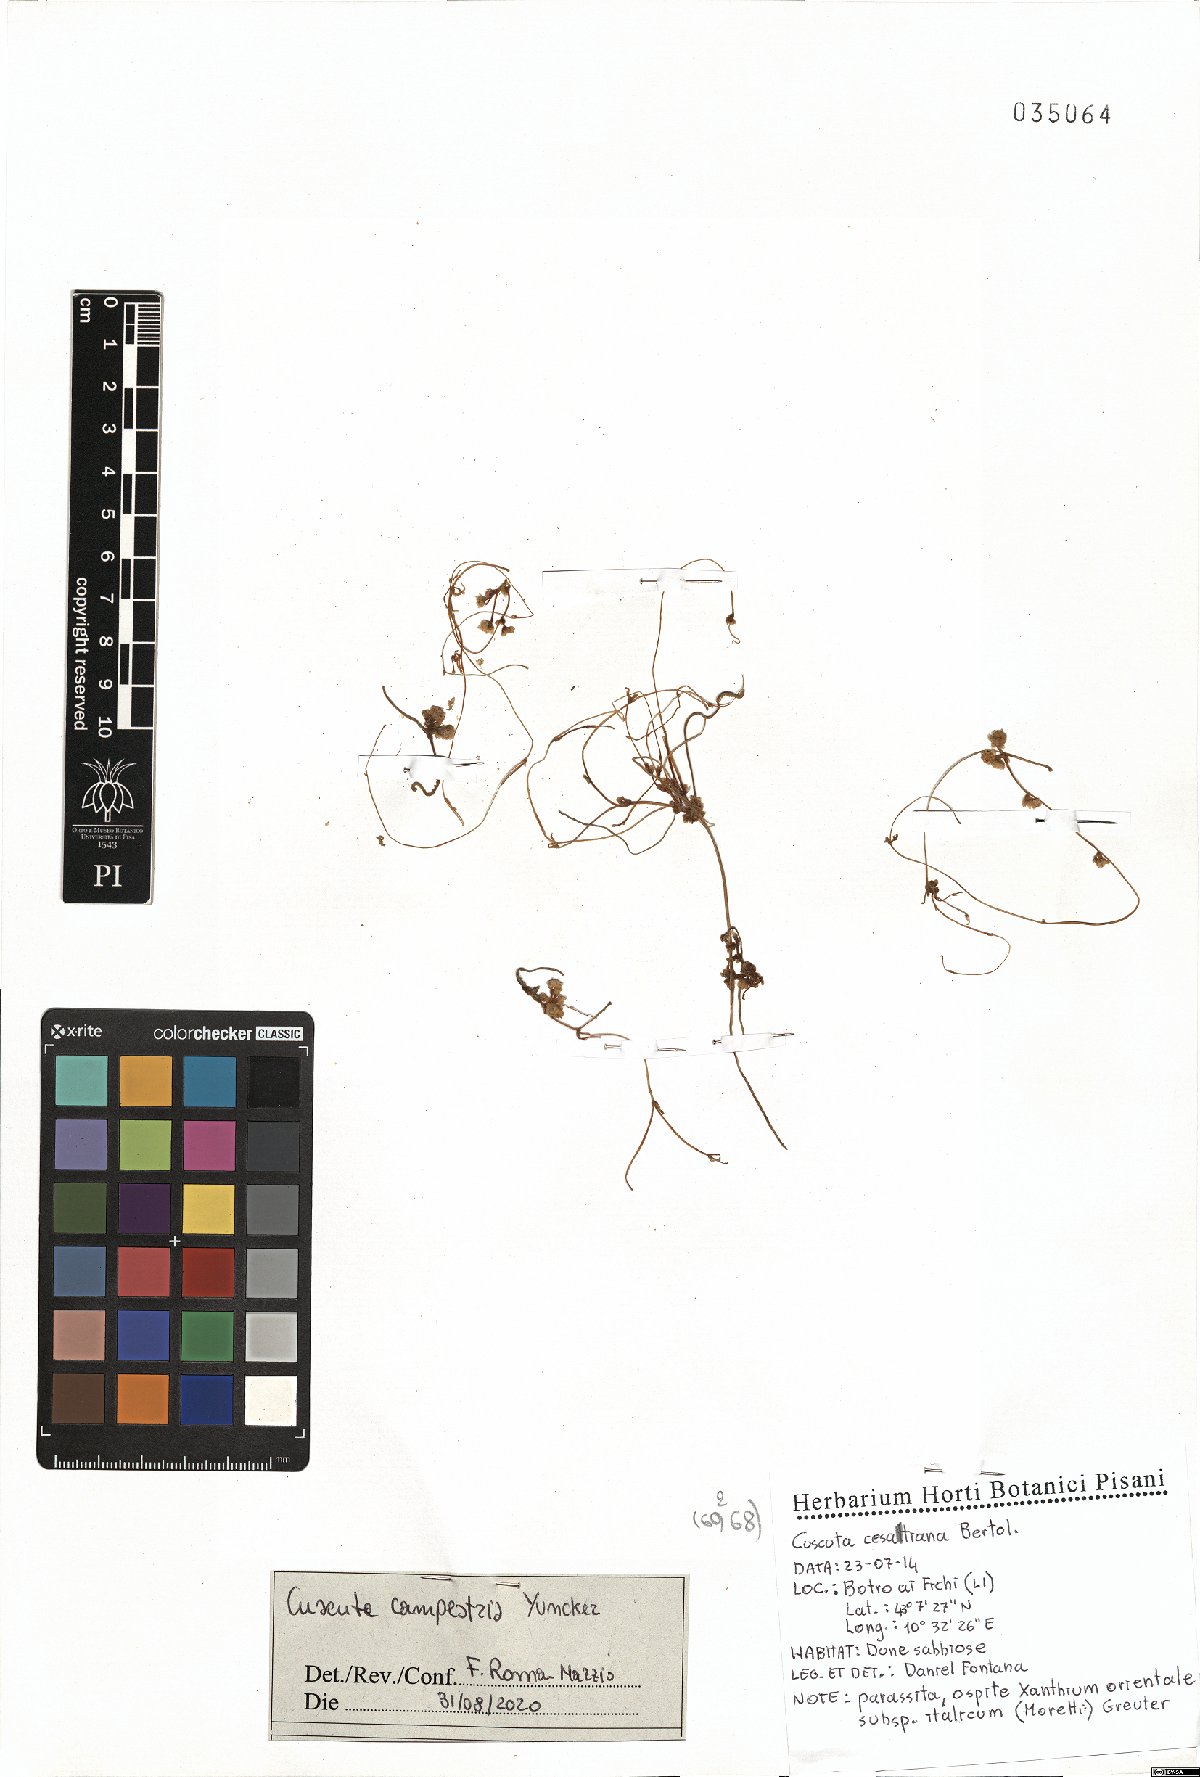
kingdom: Plantae
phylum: Tracheophyta
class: Magnoliopsida
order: Solanales
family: Convolvulaceae
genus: Cuscuta
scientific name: Cuscuta campestris
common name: Yellow dodder
